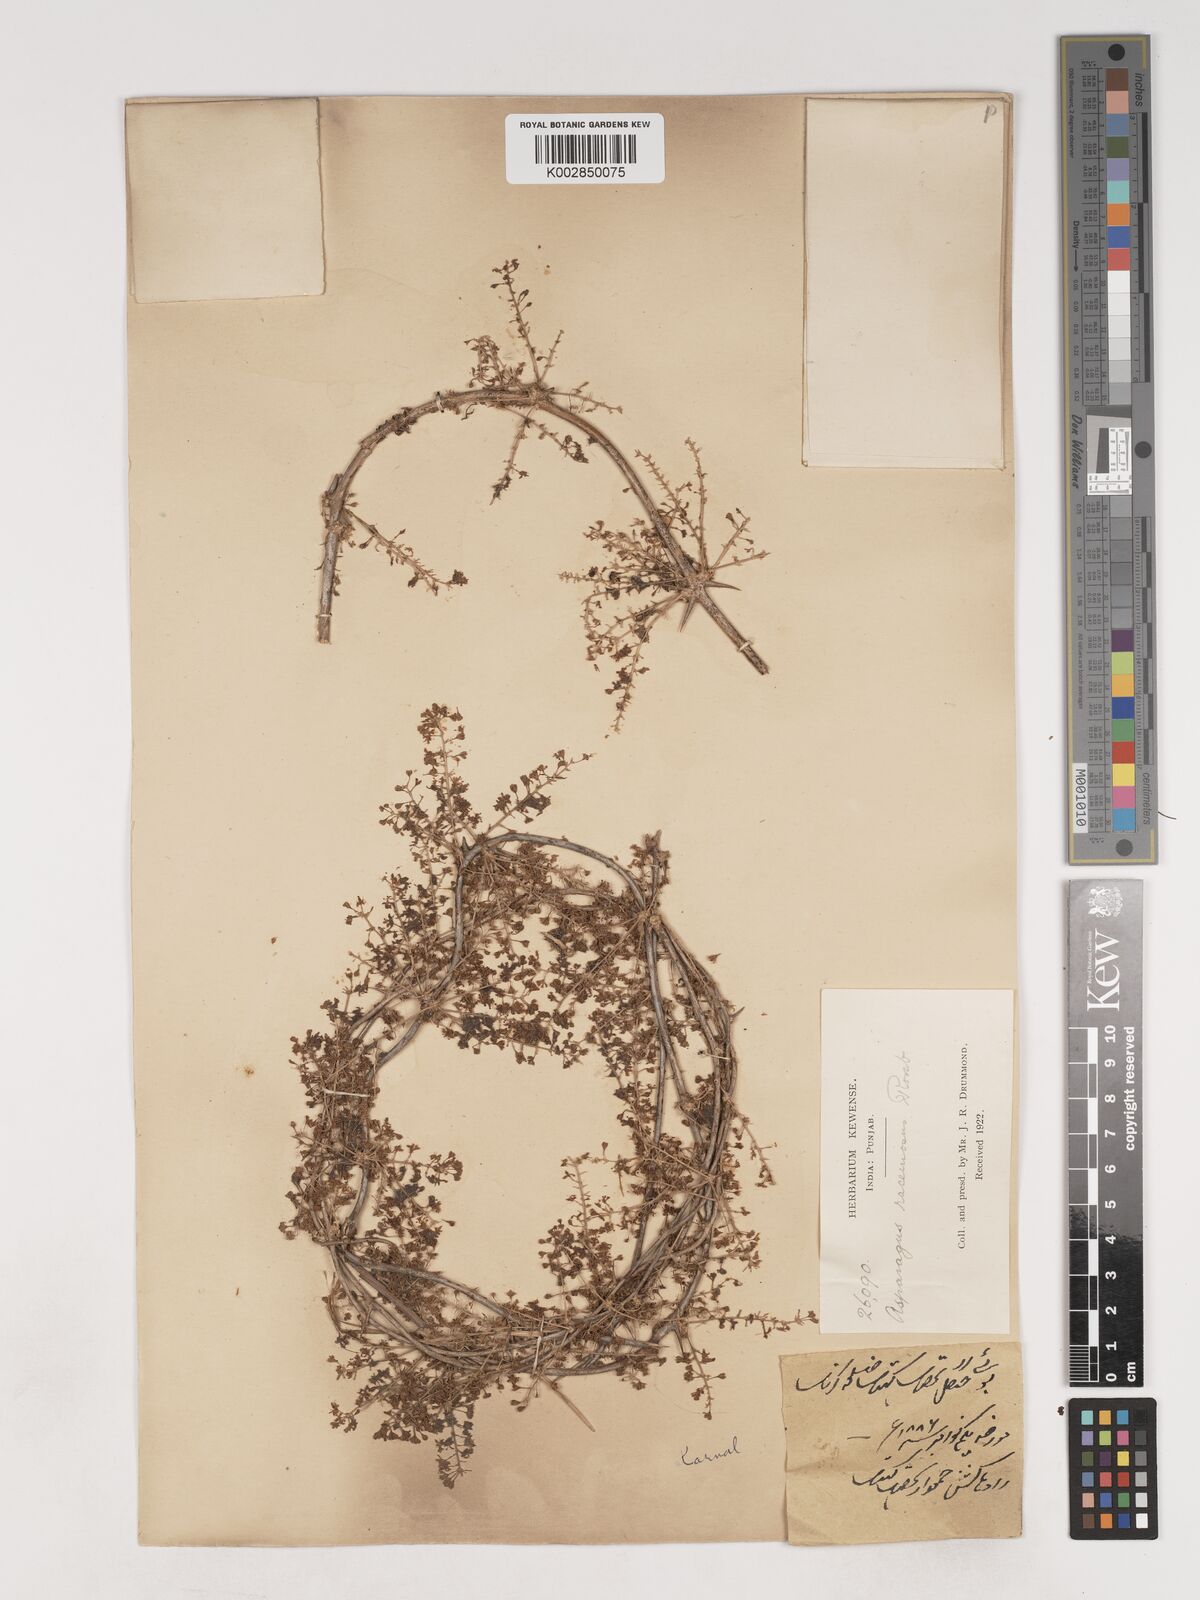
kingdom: Plantae
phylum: Tracheophyta
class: Liliopsida
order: Asparagales
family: Asparagaceae
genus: Asparagus
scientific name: Asparagus racemosus
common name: Asparagus-fern
